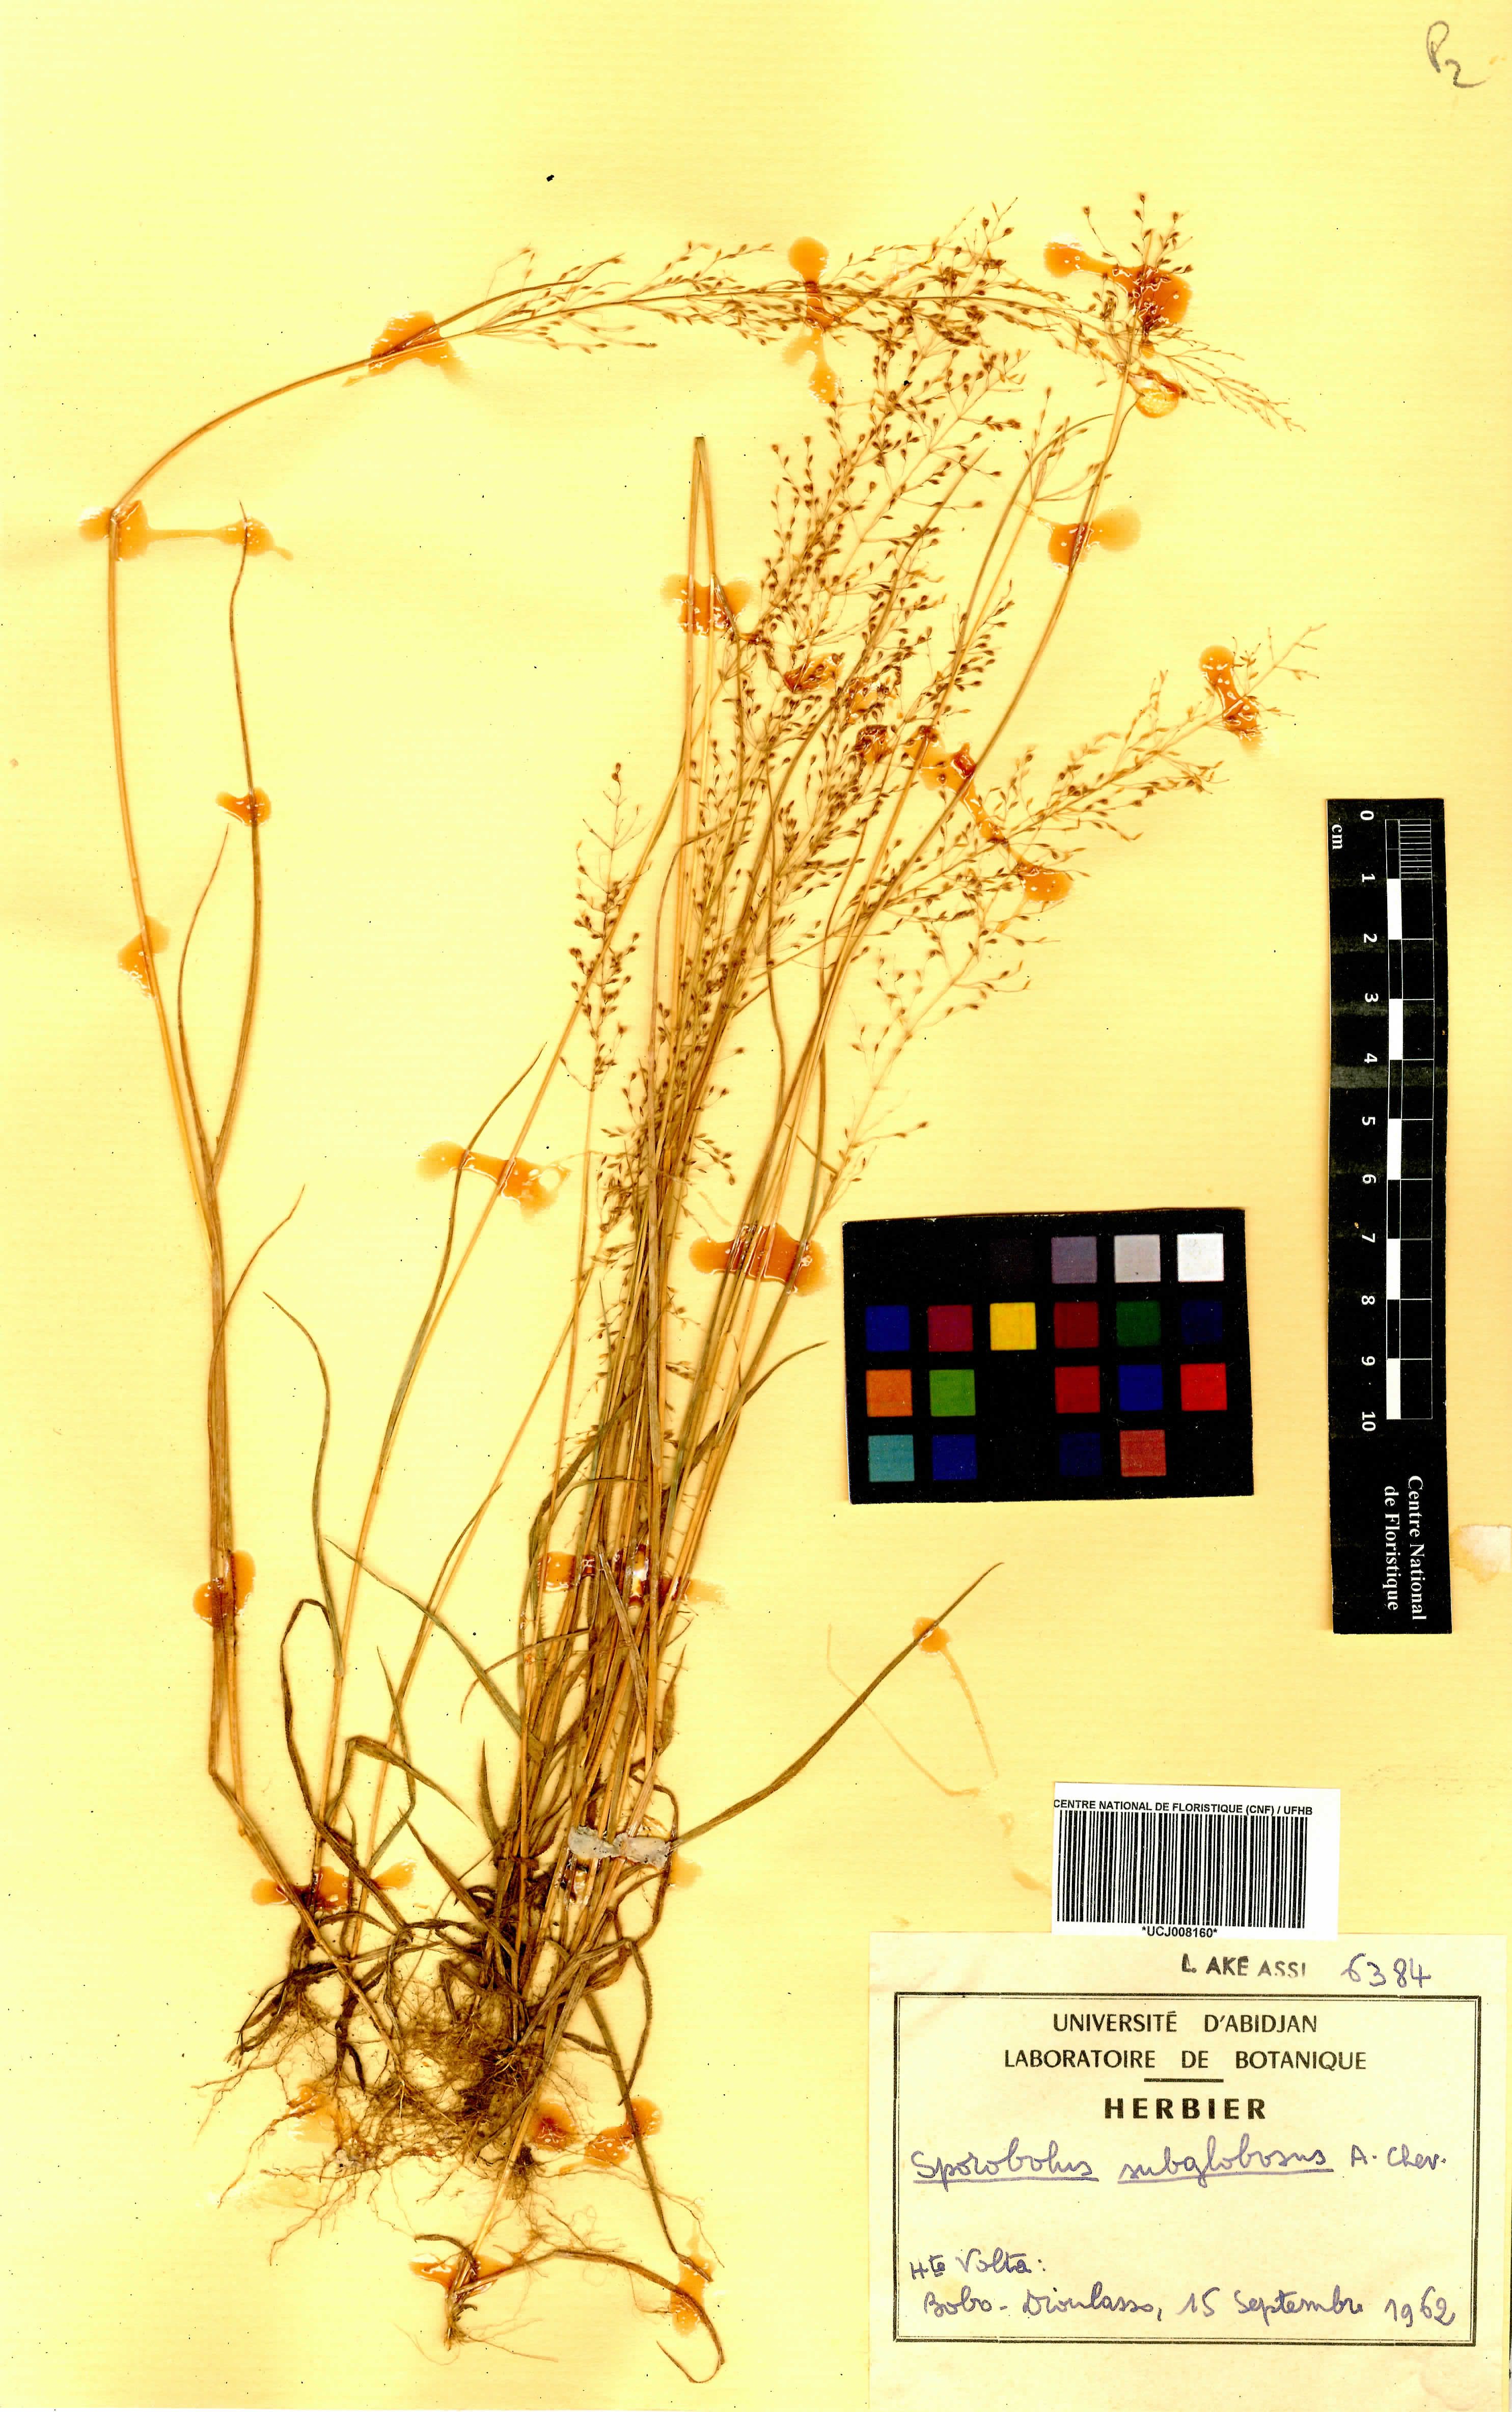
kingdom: Plantae
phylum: Tracheophyta
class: Liliopsida
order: Poales
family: Poaceae
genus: Sporobolus
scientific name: Sporobolus subglobosus
